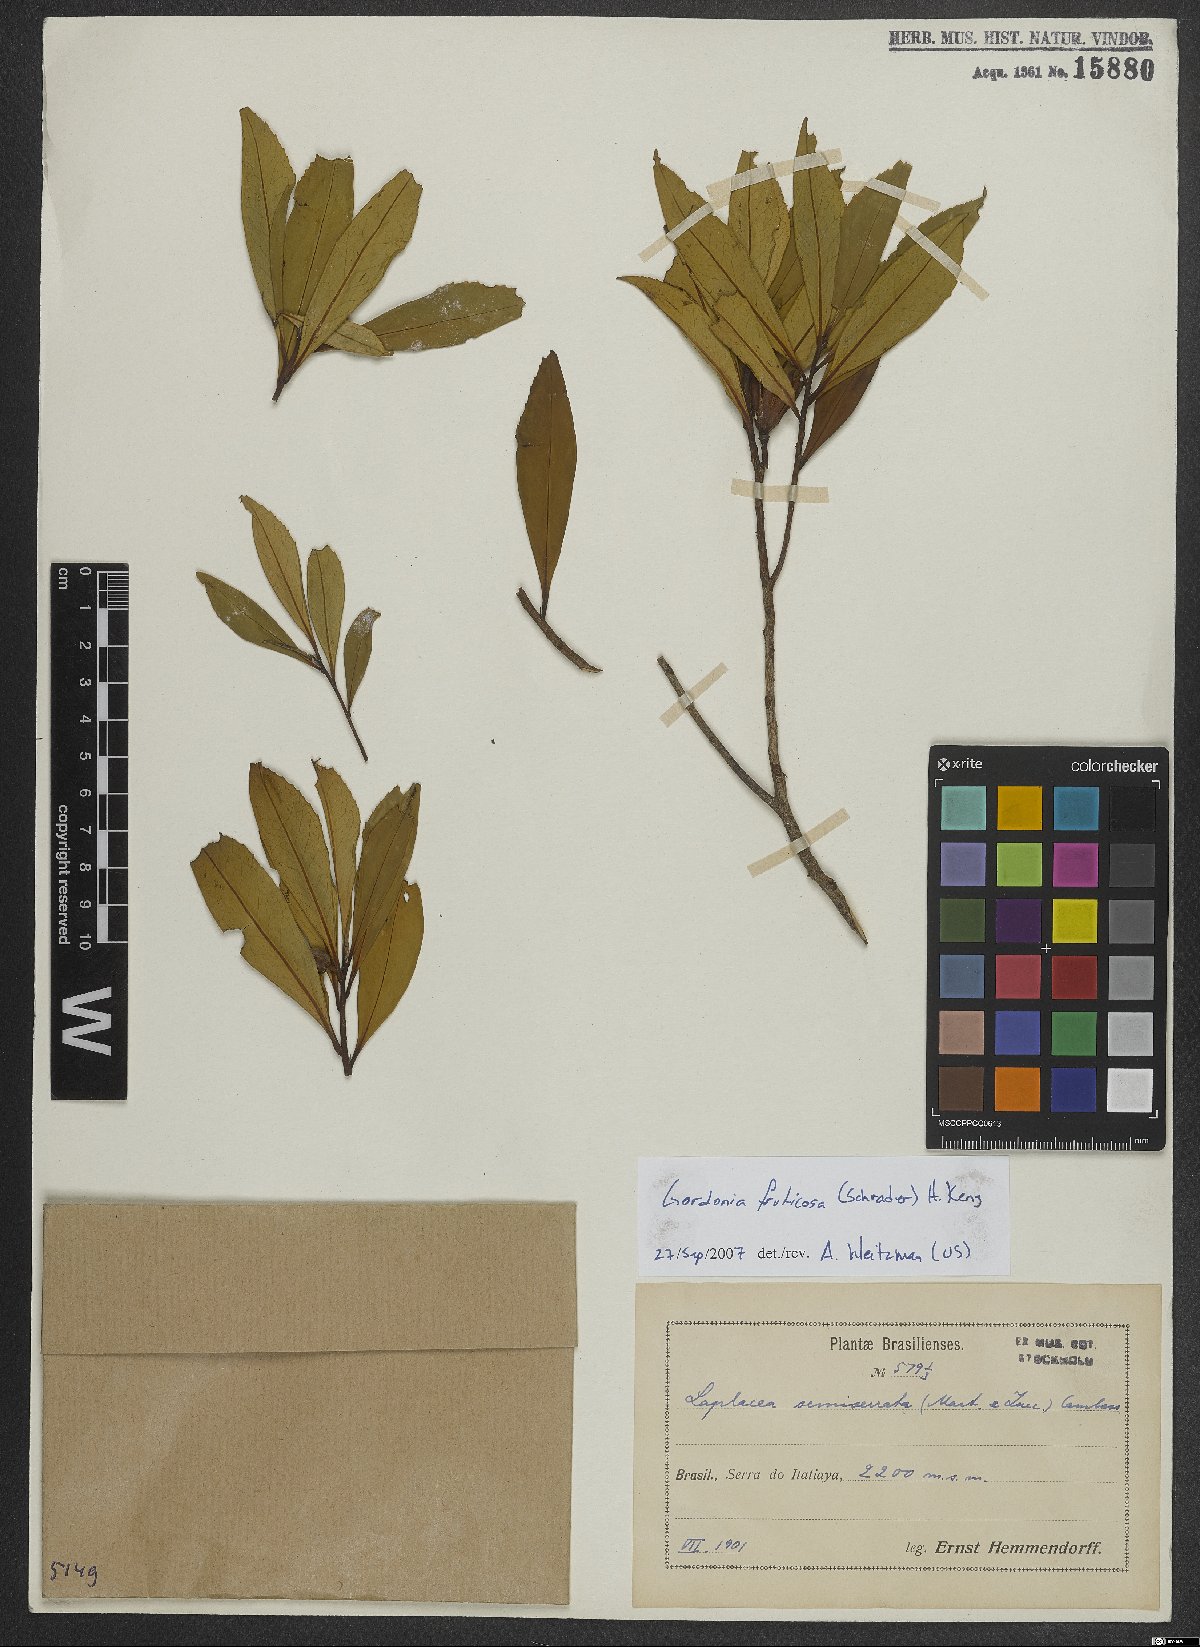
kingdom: Plantae
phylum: Tracheophyta
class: Magnoliopsida
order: Ericales
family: Theaceae
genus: Gordonia
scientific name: Gordonia fruticosa
